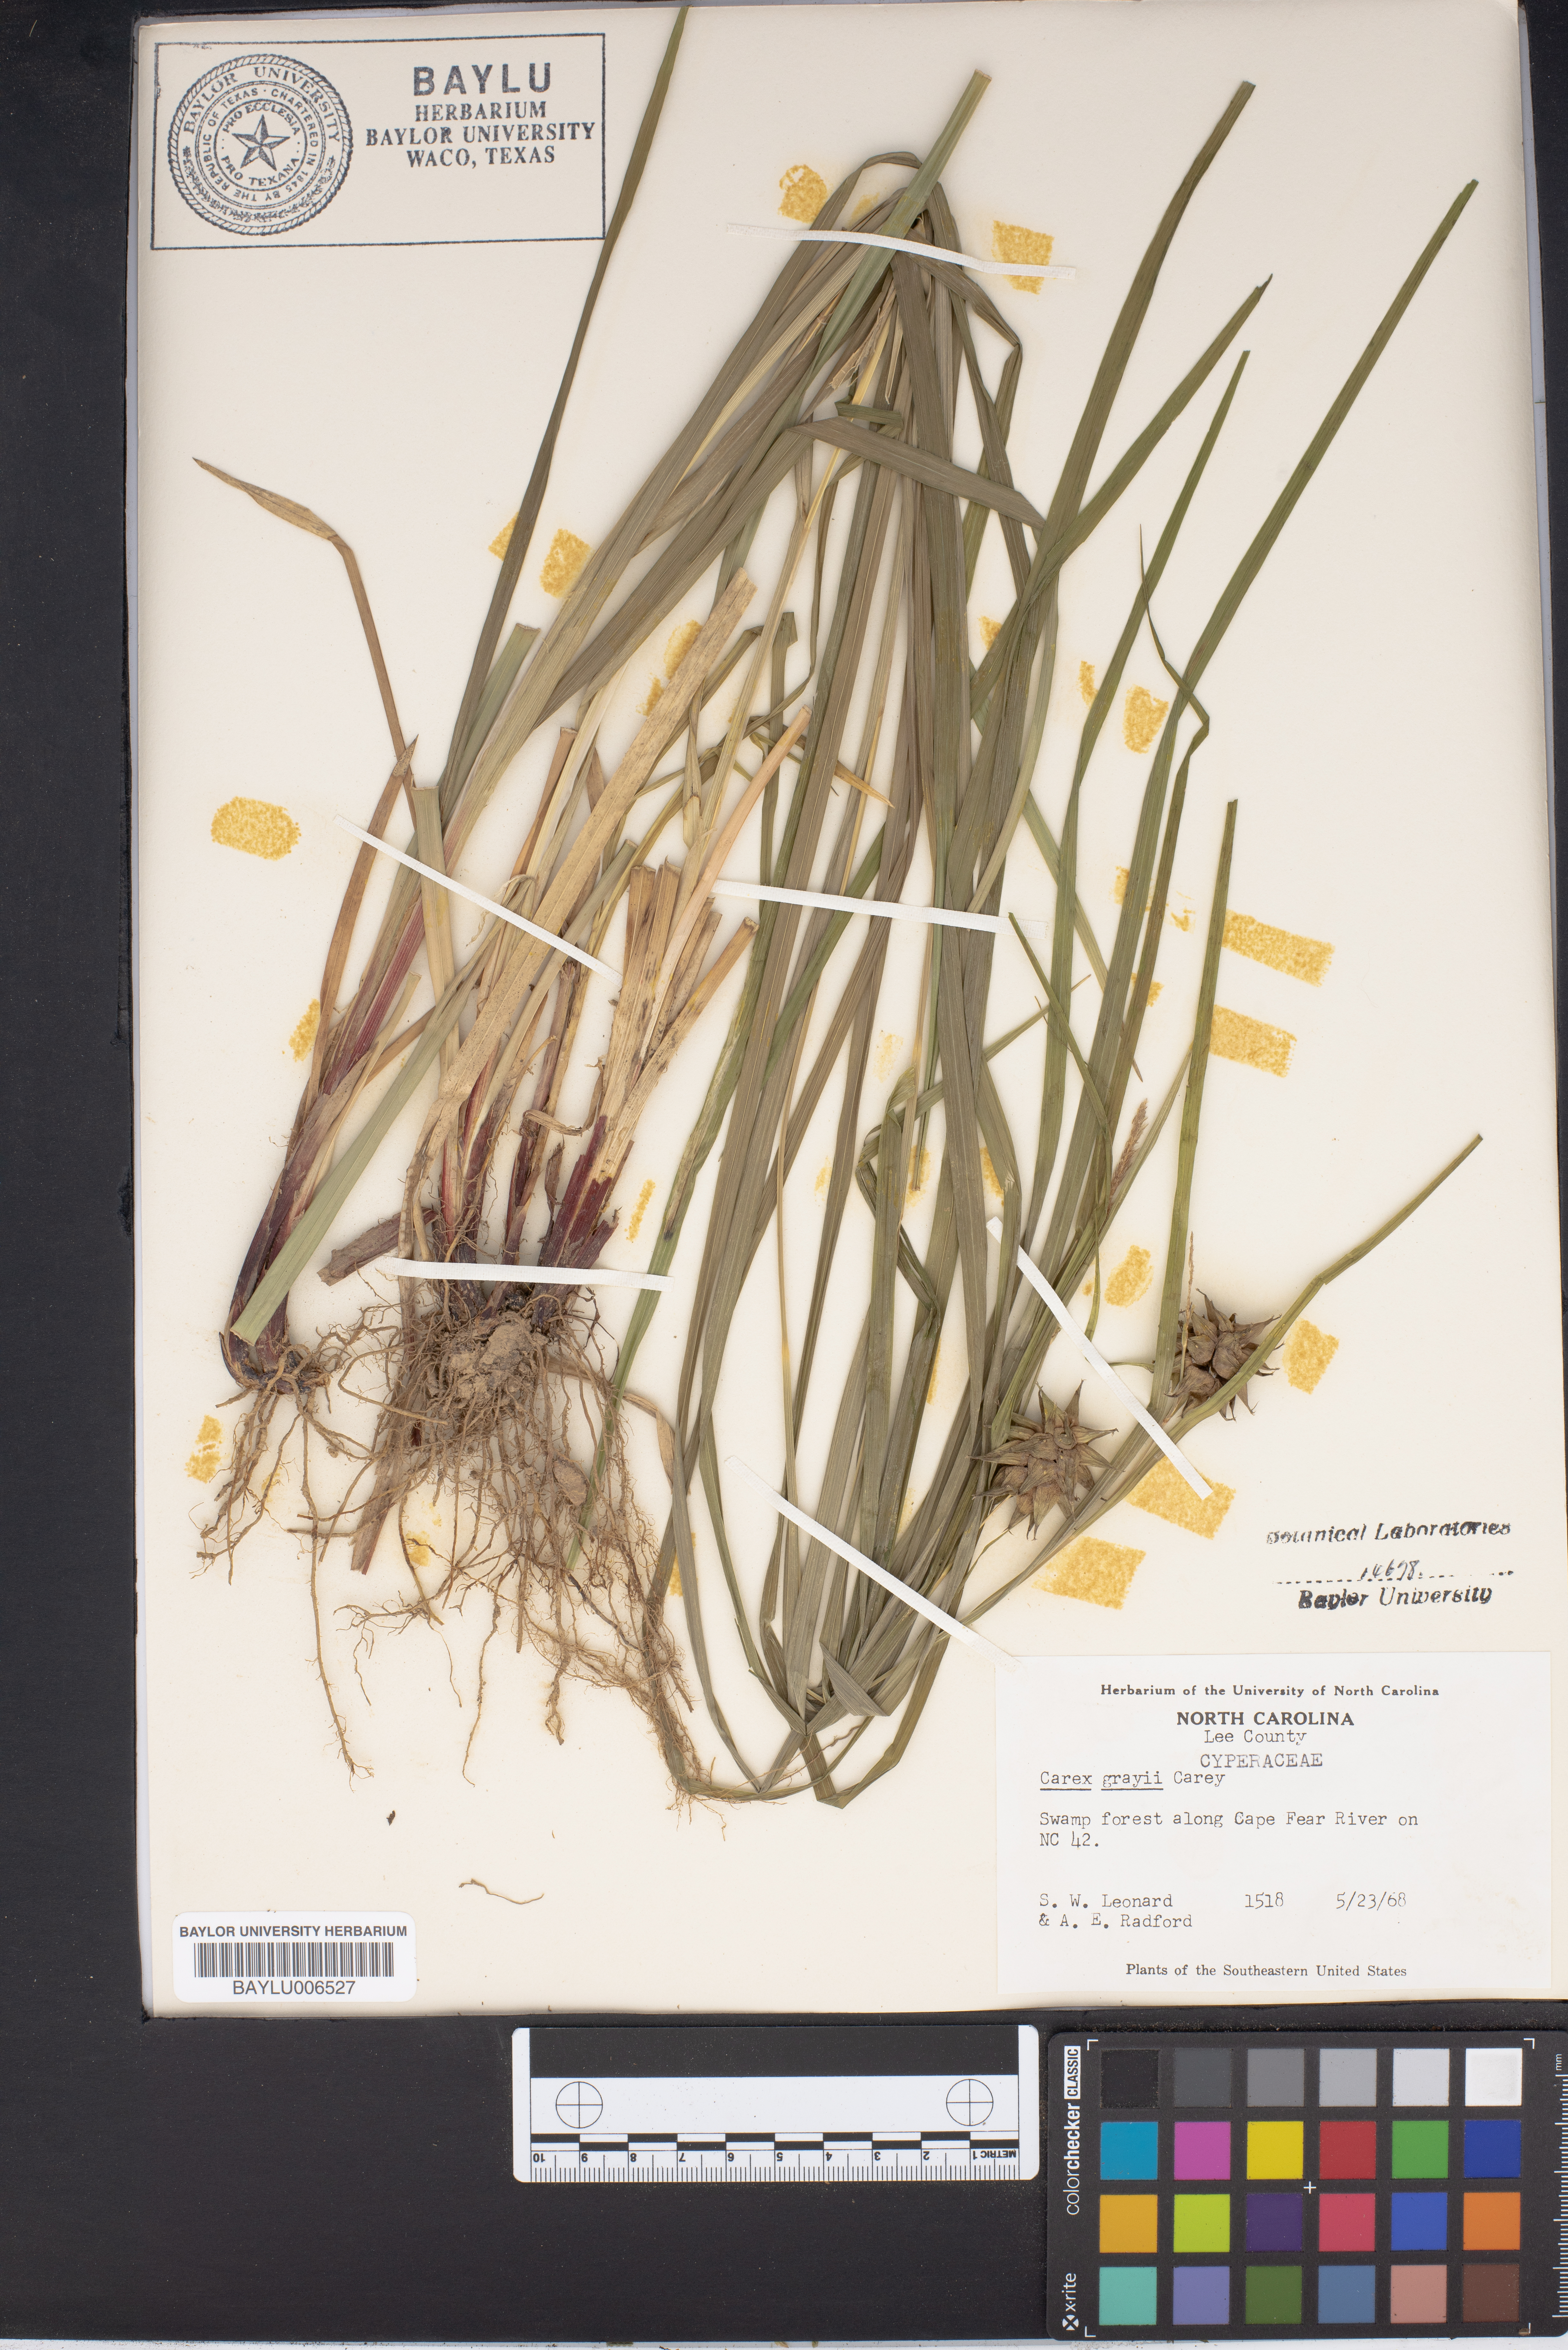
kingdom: Plantae
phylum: Tracheophyta
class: Liliopsida
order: Poales
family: Cyperaceae
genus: Carex
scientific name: Carex grayi
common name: Asa gray's sedge
